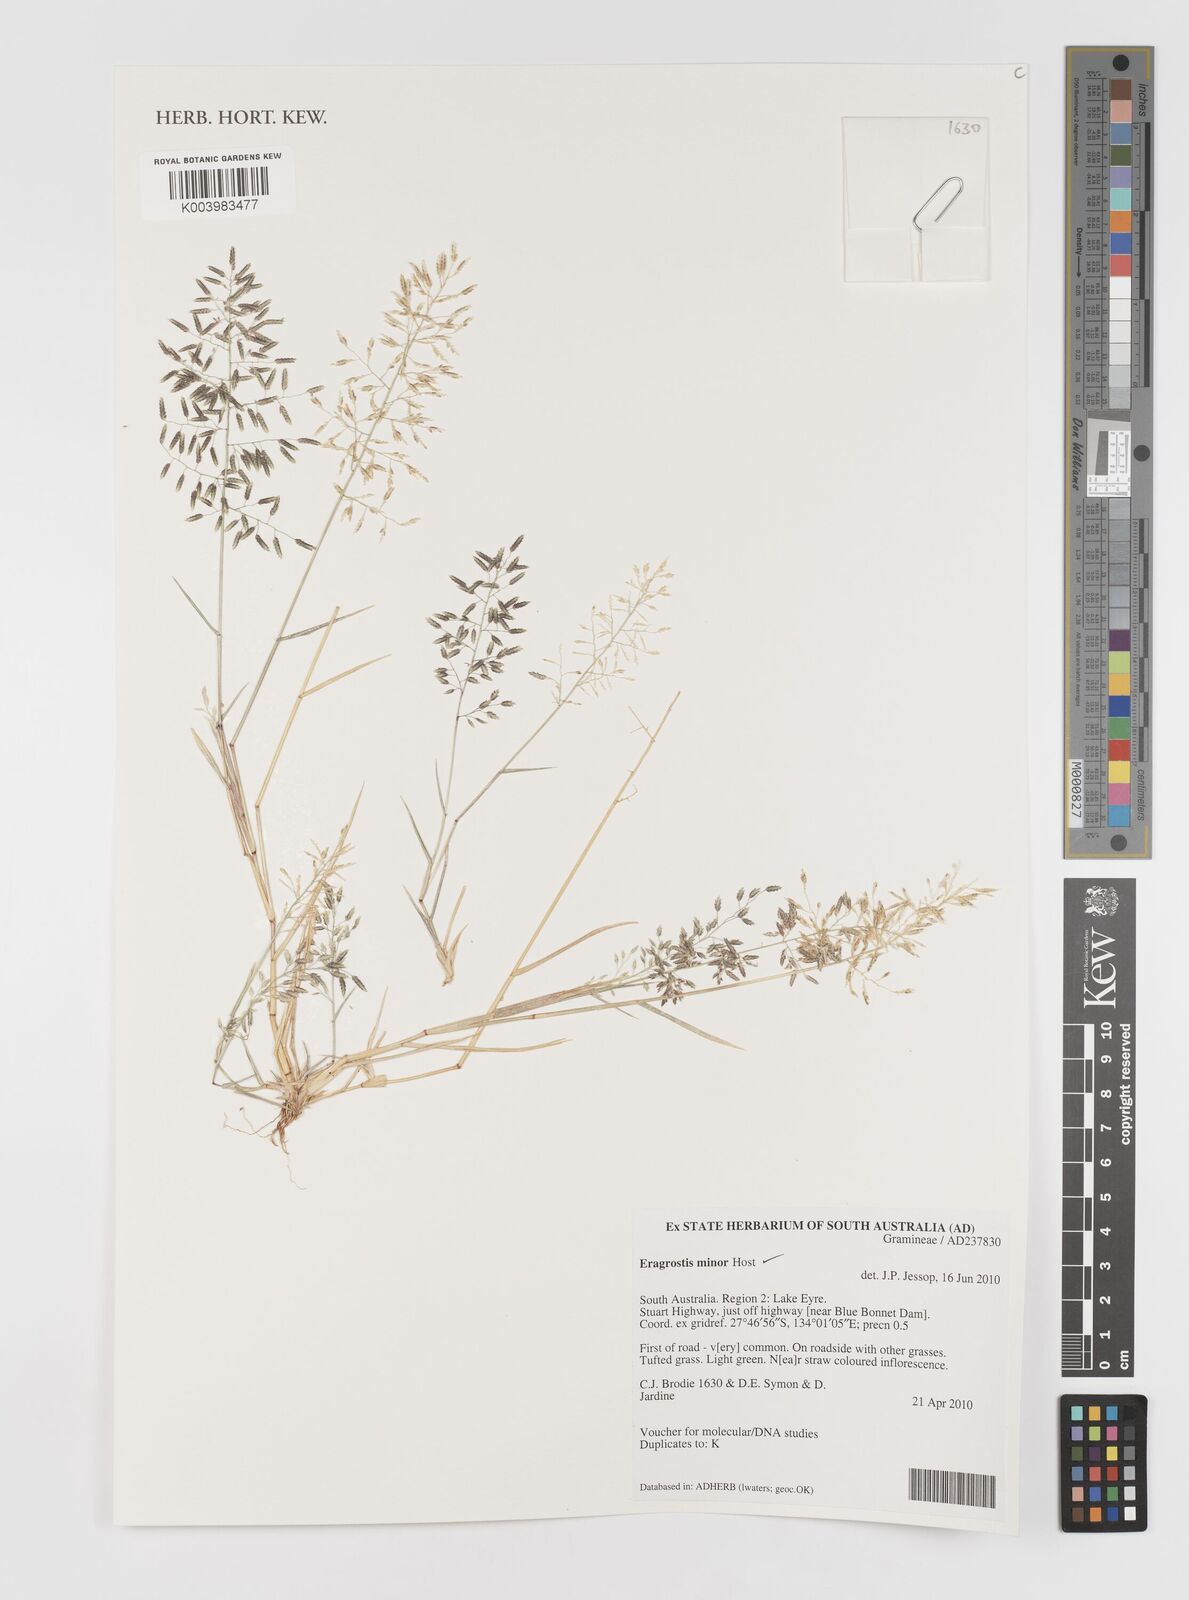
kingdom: Plantae
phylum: Tracheophyta
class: Liliopsida
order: Poales
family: Poaceae
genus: Eragrostis
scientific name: Eragrostis minor
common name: Small love-grass
